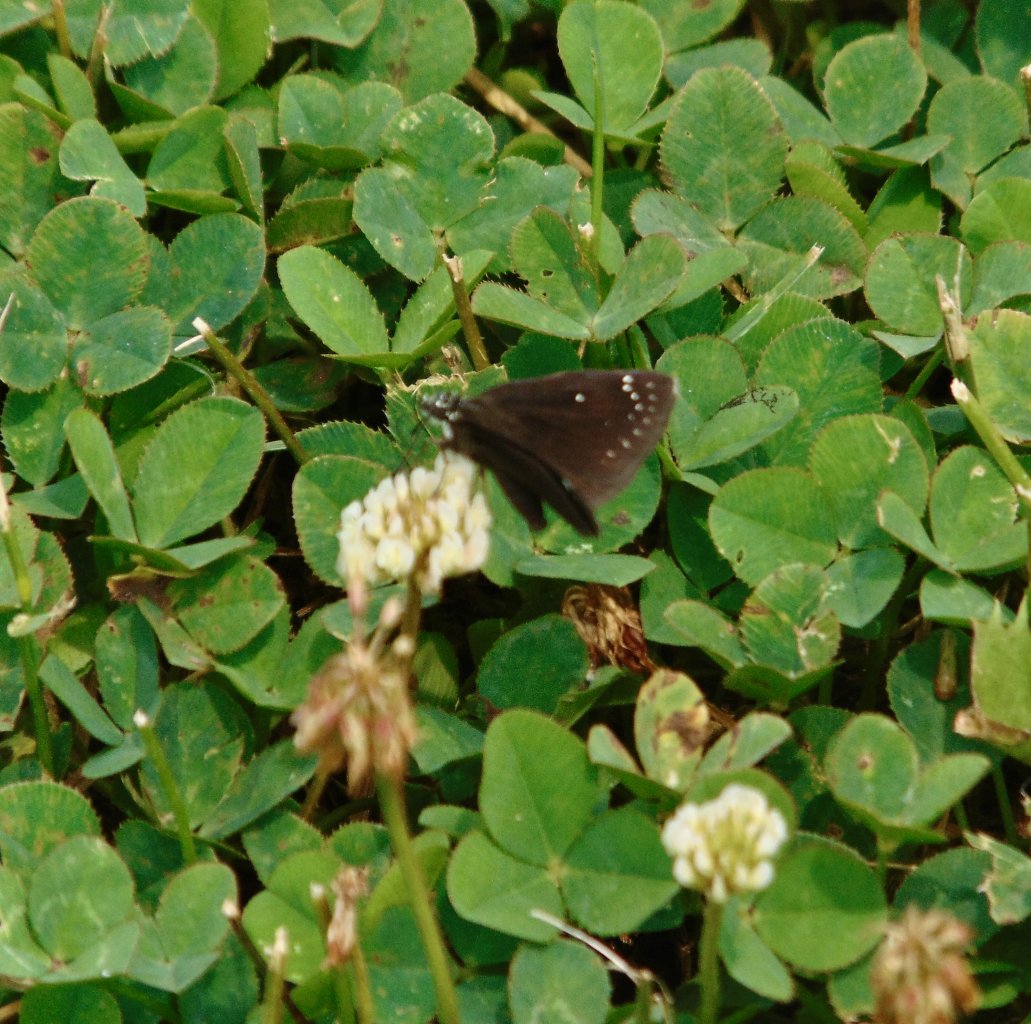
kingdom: Animalia
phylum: Arthropoda
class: Insecta
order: Lepidoptera
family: Hesperiidae
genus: Pholisora
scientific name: Pholisora catullus
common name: Common Sootywing
